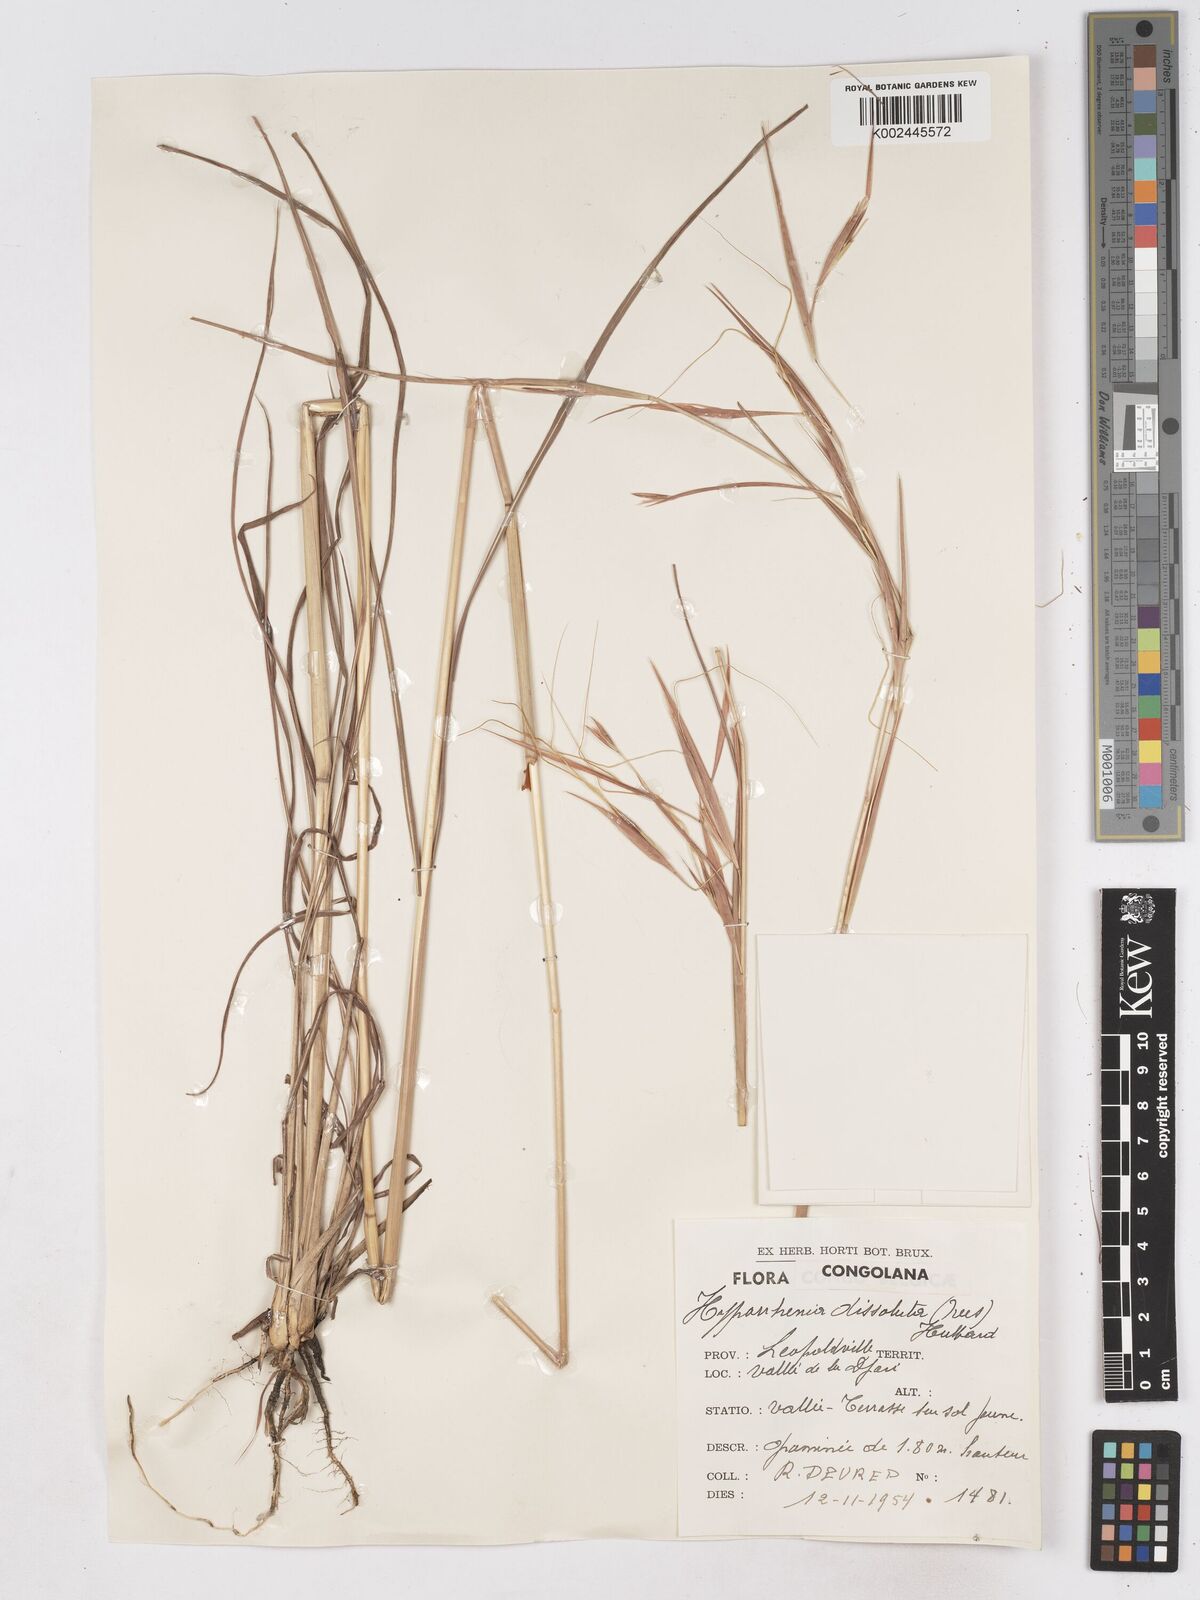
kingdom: Plantae
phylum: Tracheophyta
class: Liliopsida
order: Poales
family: Poaceae
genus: Hyperthelia
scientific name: Hyperthelia dissoluta
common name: Yellow thatching grass
